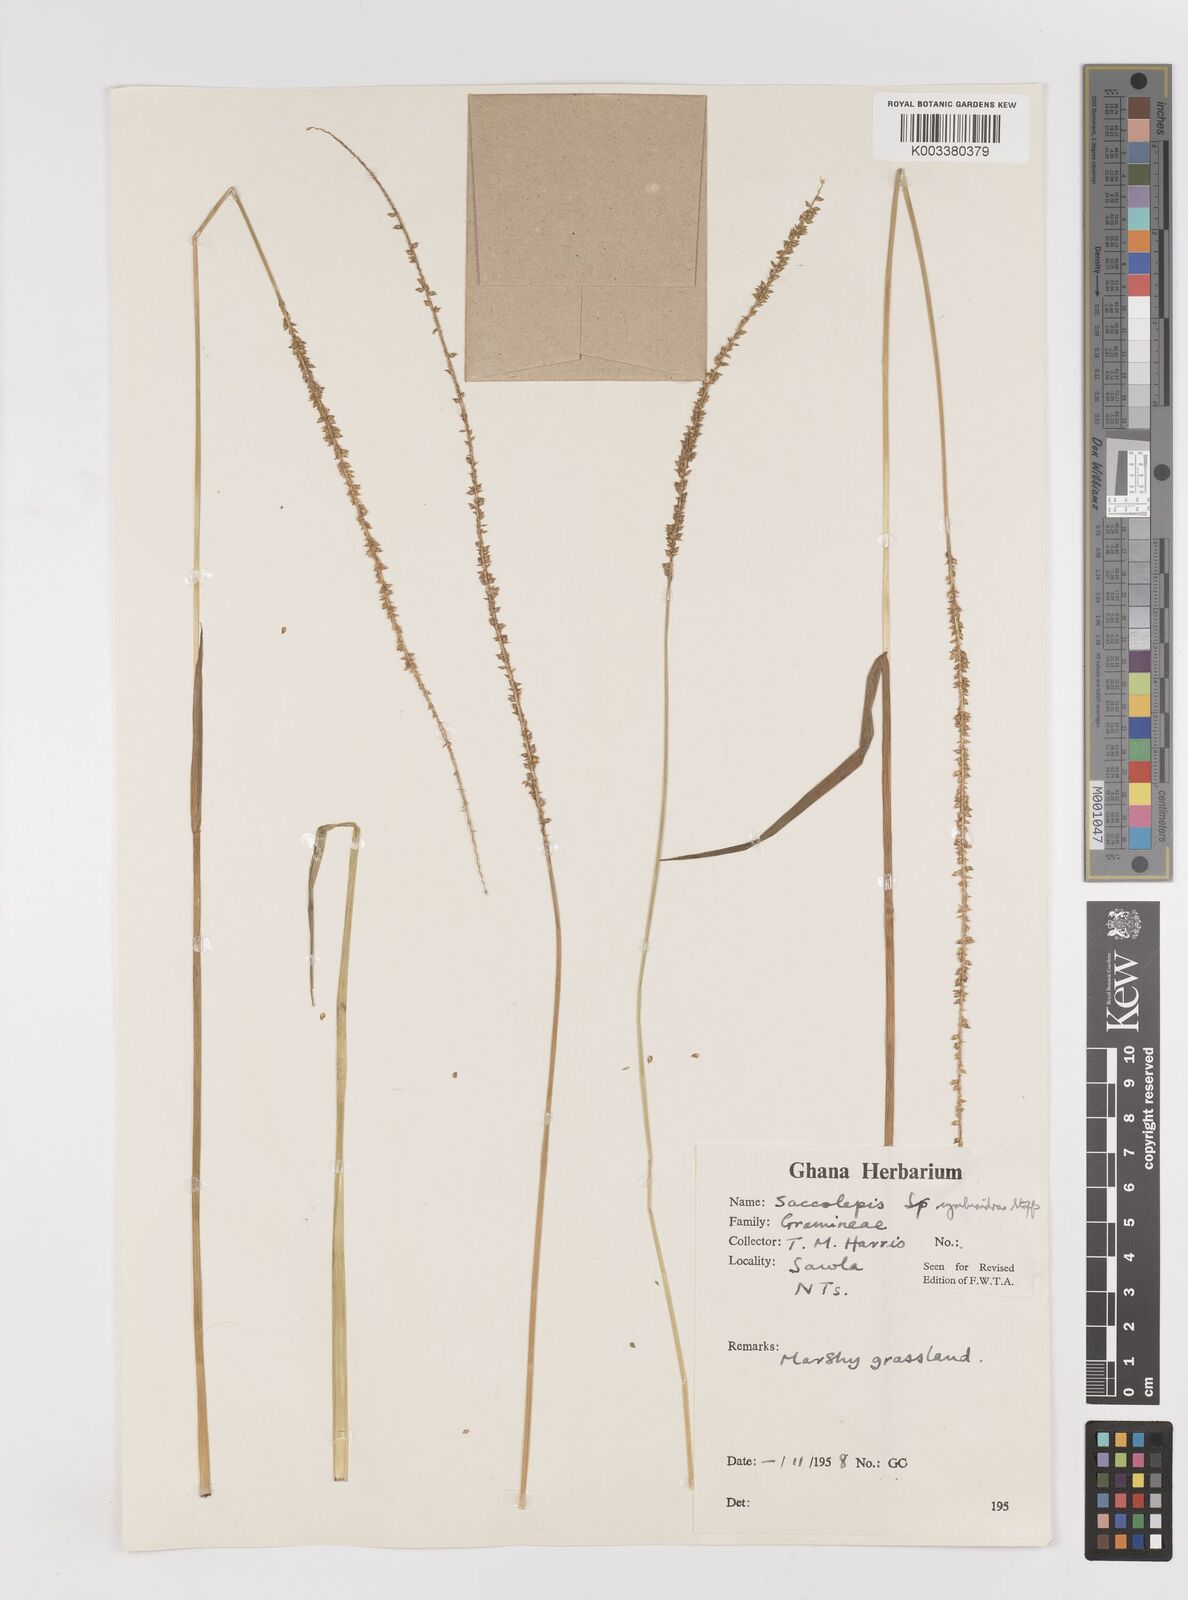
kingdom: Plantae
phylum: Tracheophyta
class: Liliopsida
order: Poales
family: Poaceae
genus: Sacciolepis
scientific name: Sacciolepis cymbiandra
